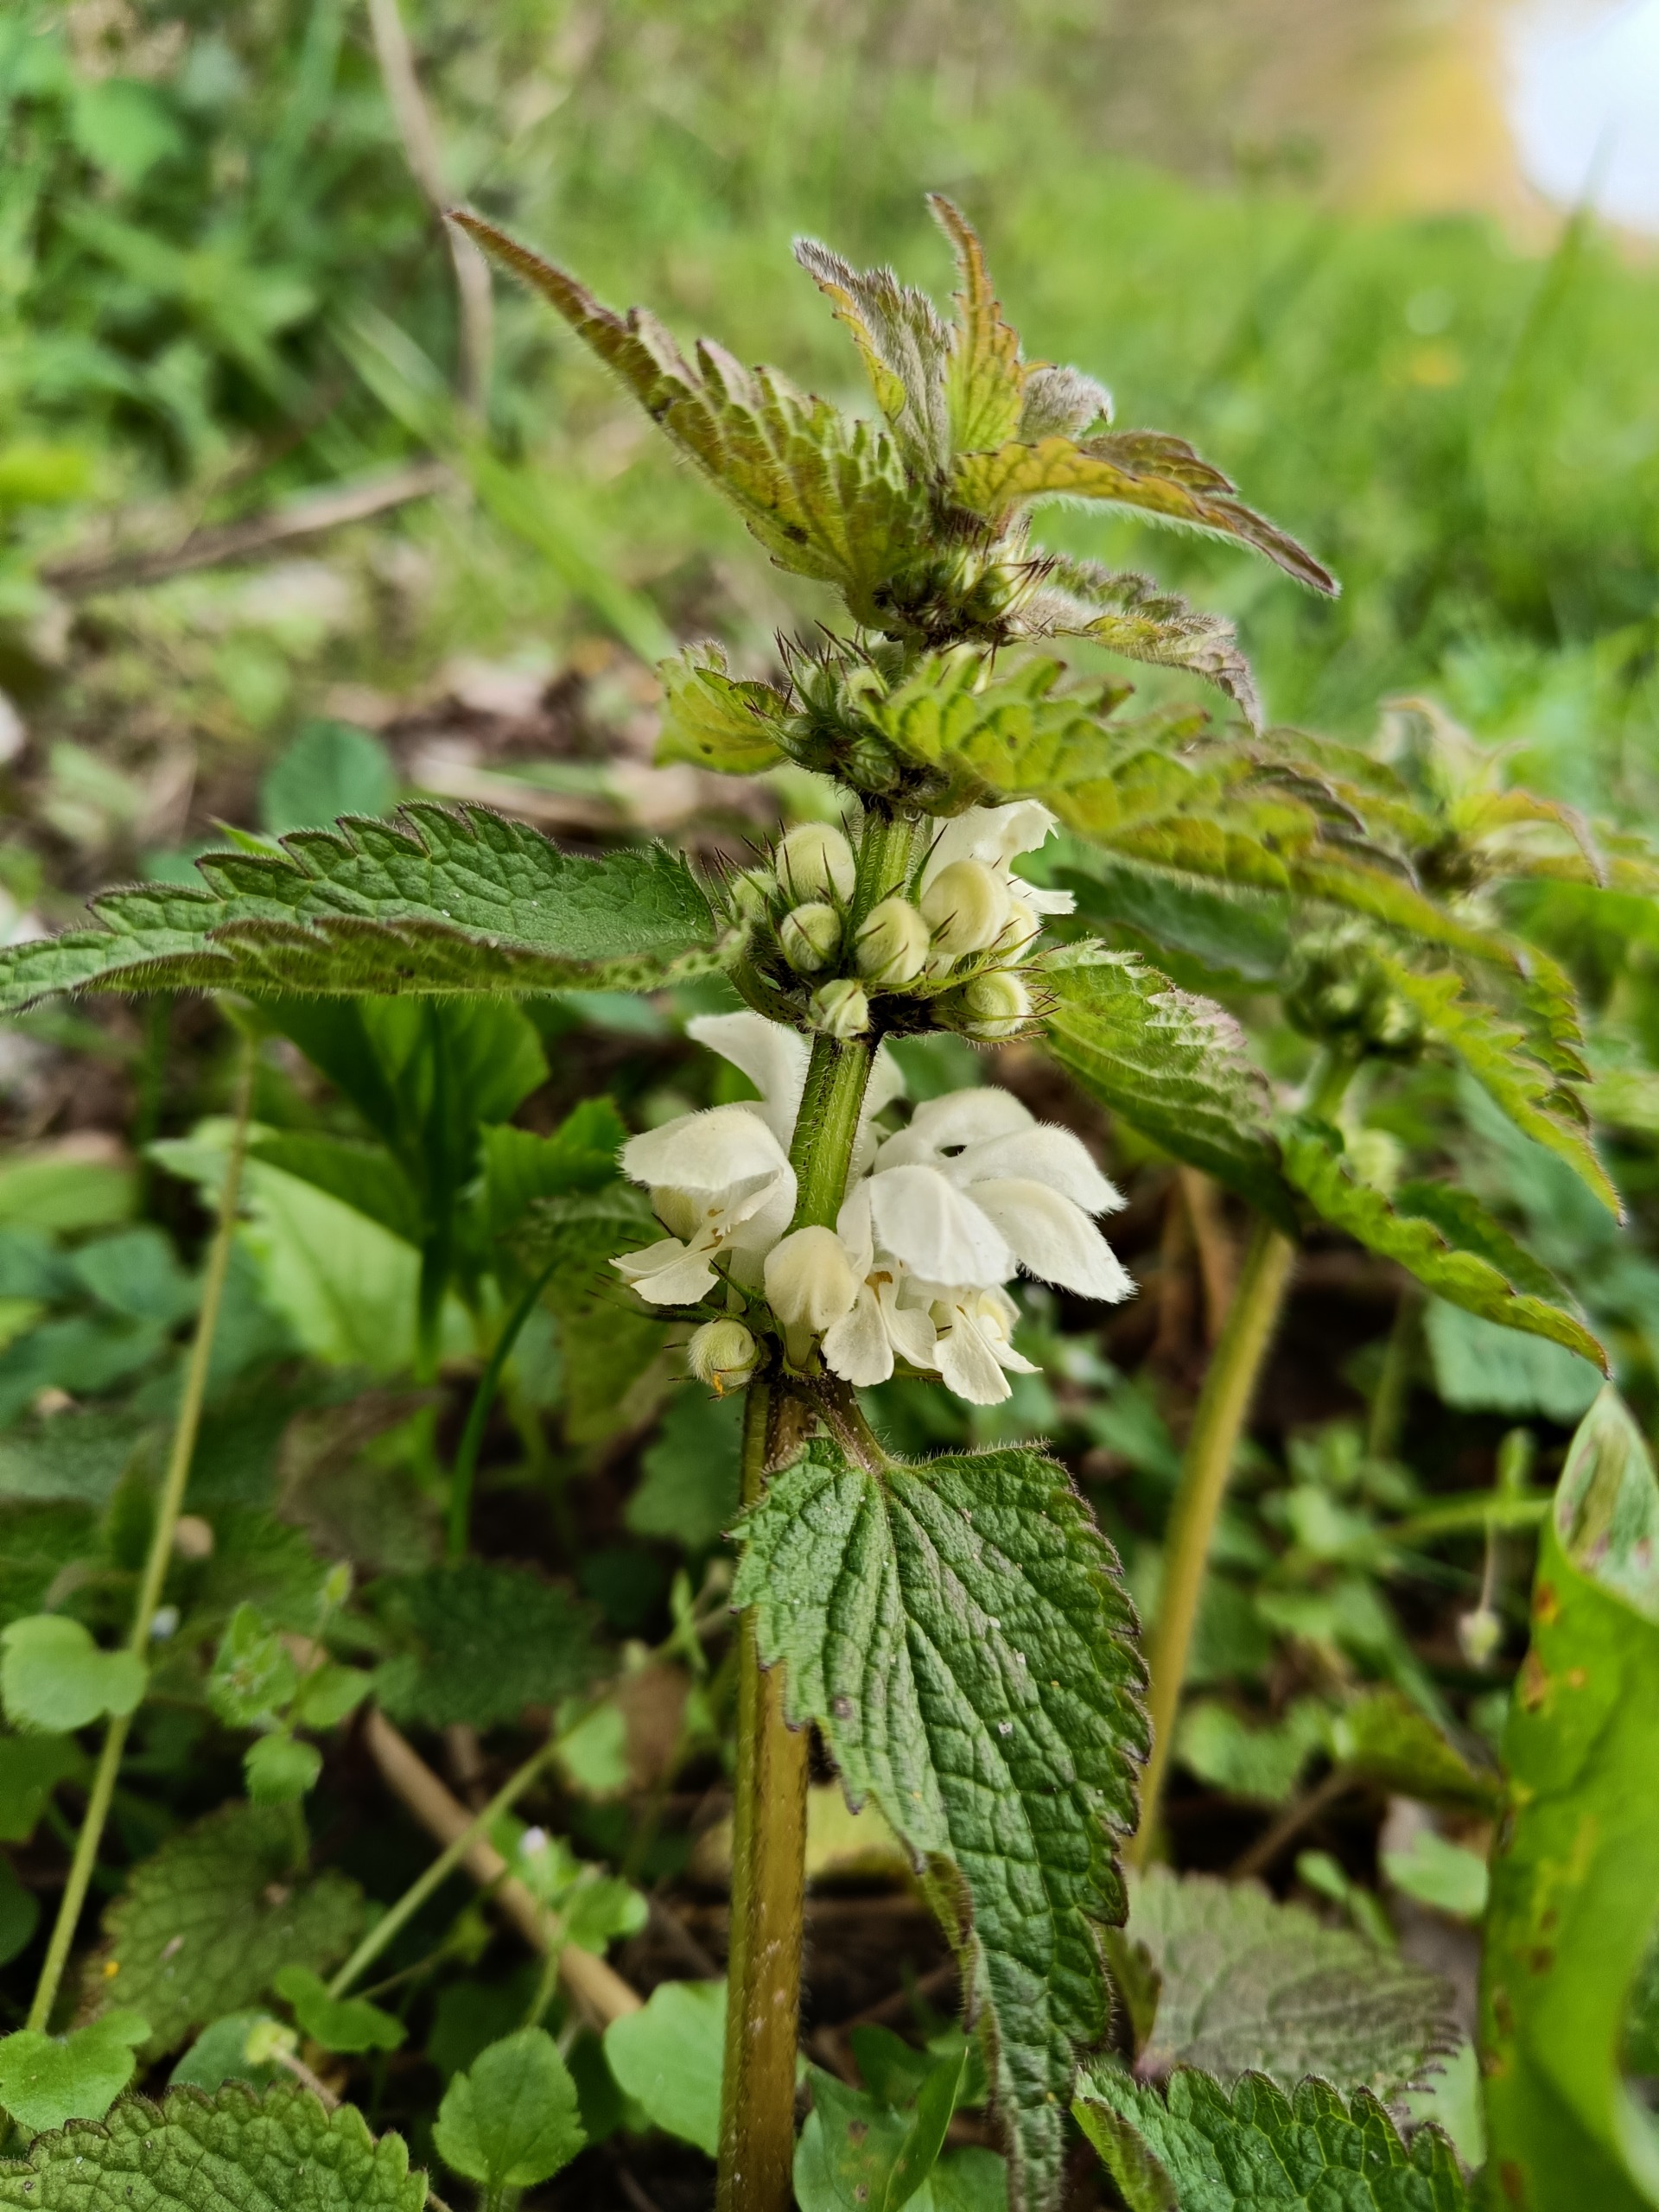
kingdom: Plantae
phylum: Tracheophyta
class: Magnoliopsida
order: Lamiales
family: Lamiaceae
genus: Lamium
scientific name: Lamium album
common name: Døvnælde
